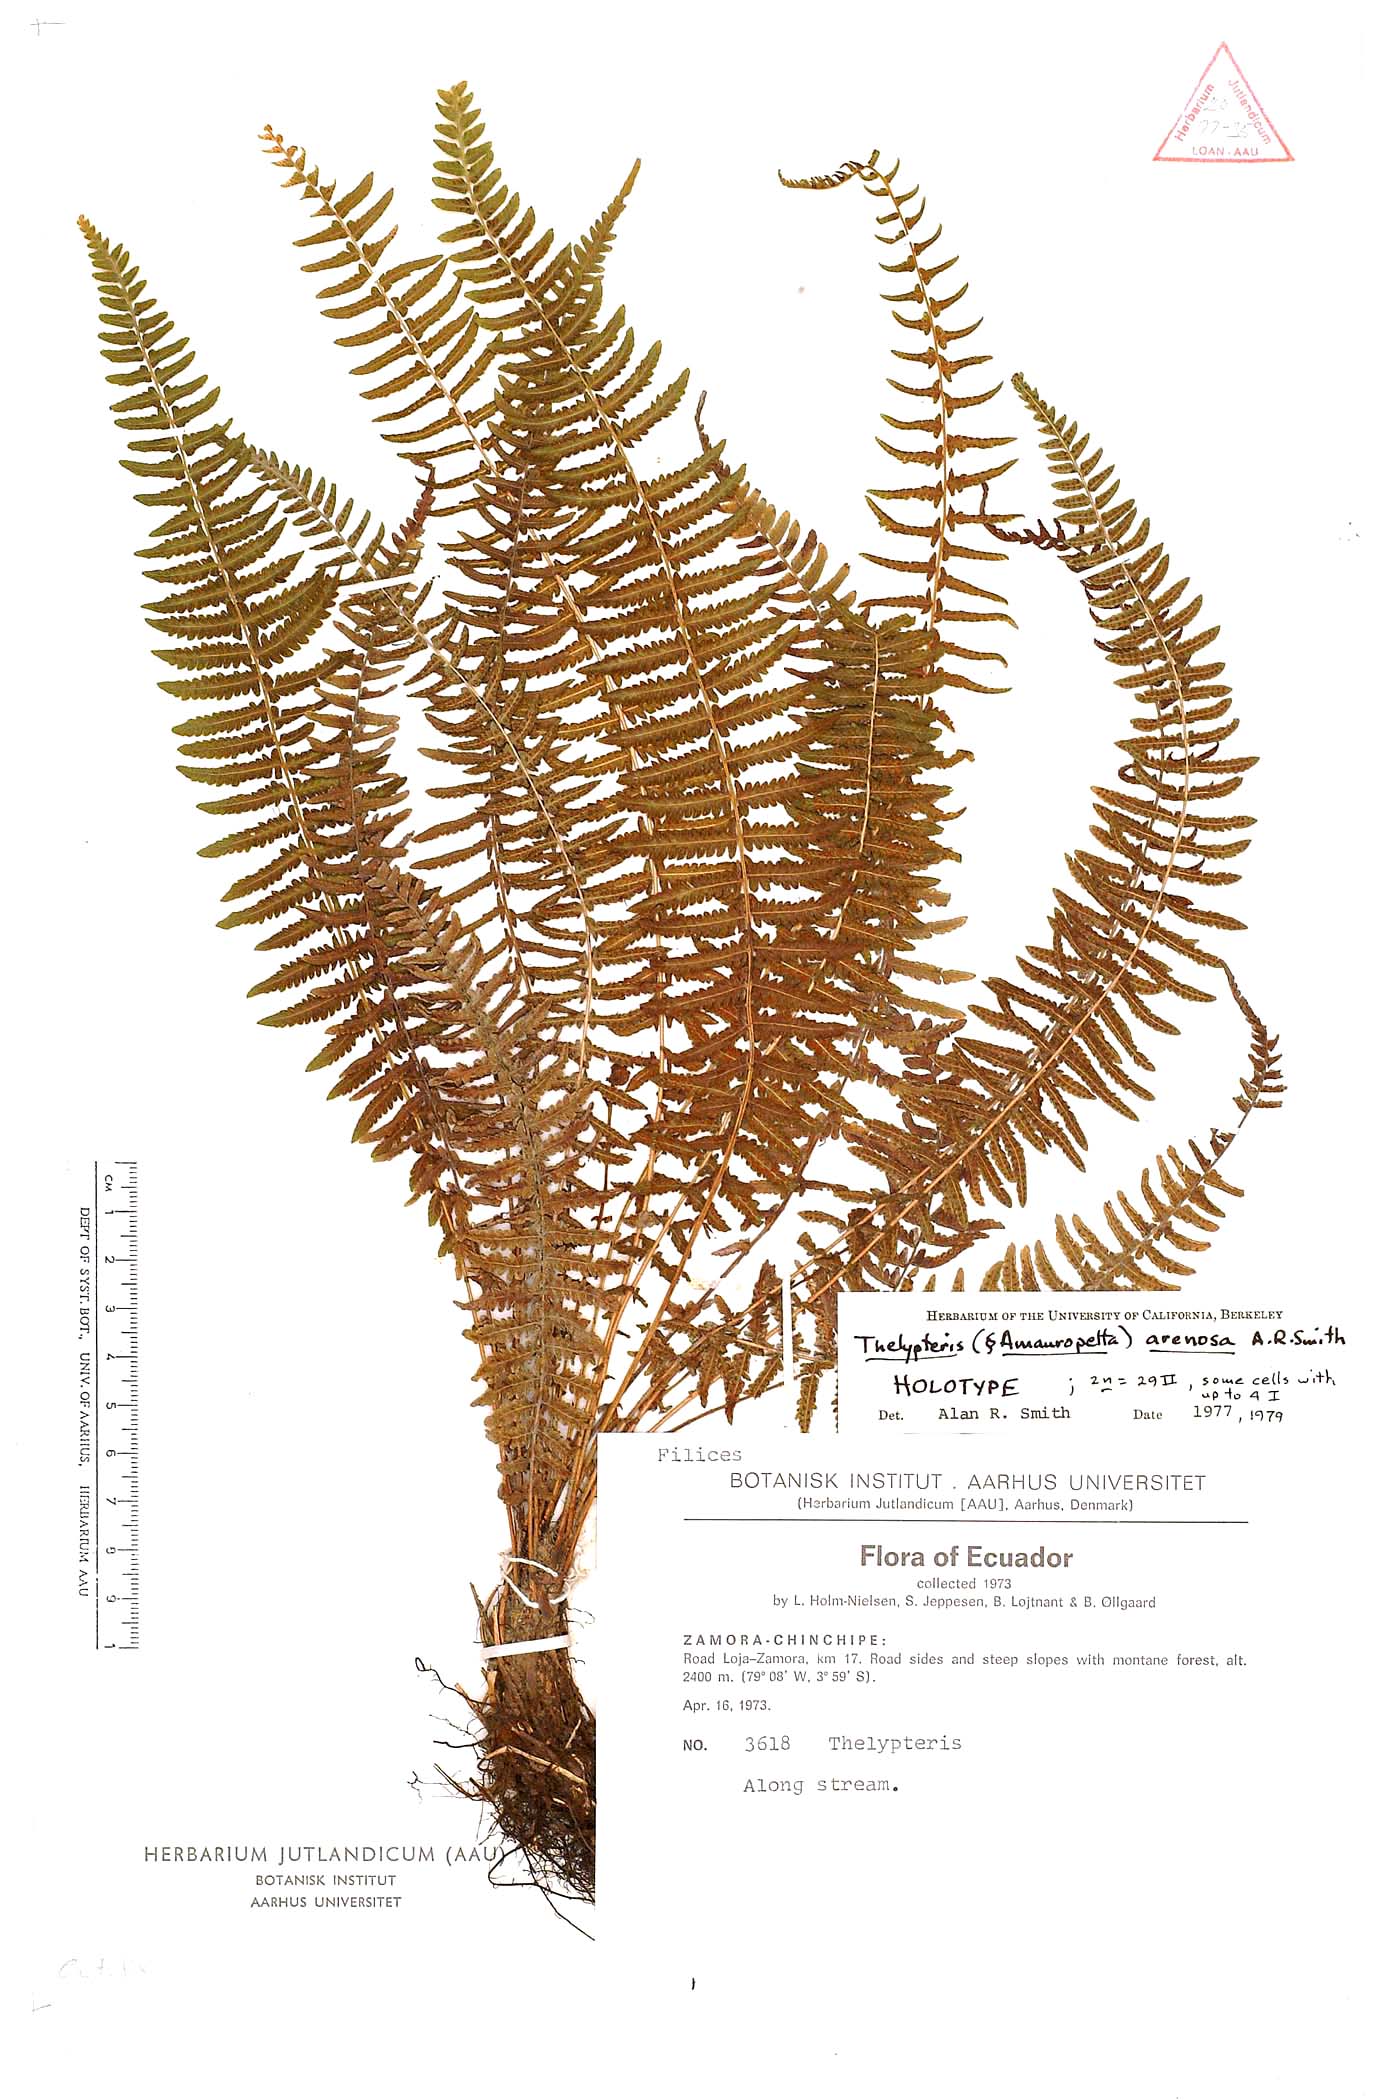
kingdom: Plantae
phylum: Tracheophyta
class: Polypodiopsida
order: Polypodiales
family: Thelypteridaceae
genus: Amauropelta
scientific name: Amauropelta arenosa
